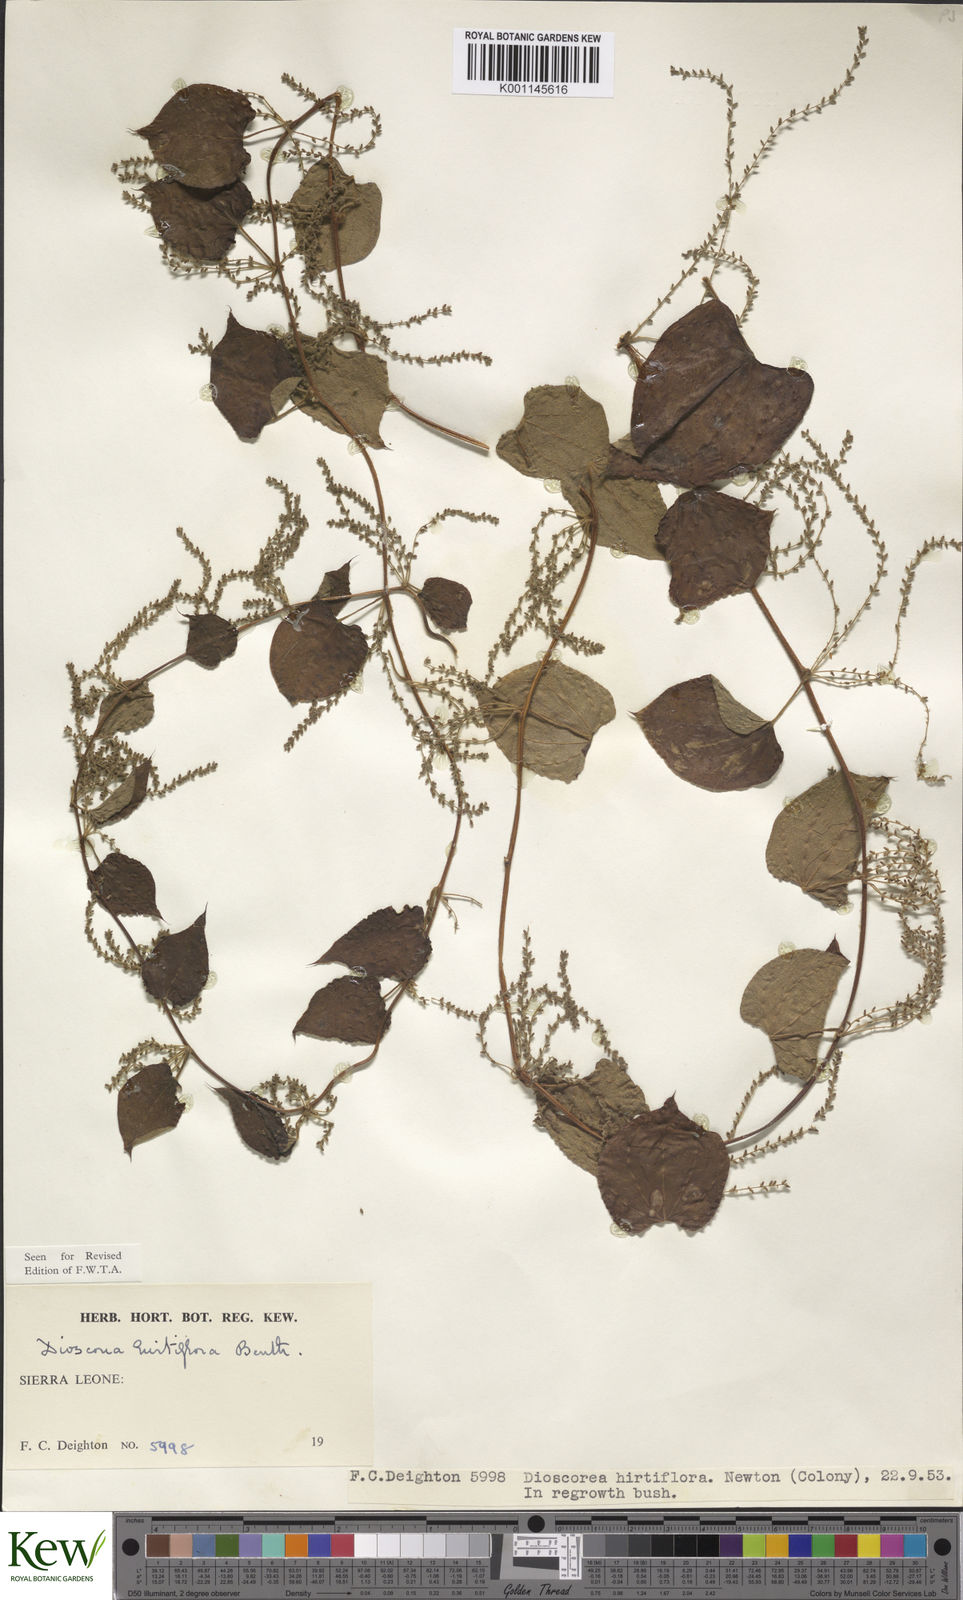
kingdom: Plantae
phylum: Tracheophyta
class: Liliopsida
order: Dioscoreales
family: Dioscoreaceae
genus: Dioscorea
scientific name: Dioscorea hirtiflora
